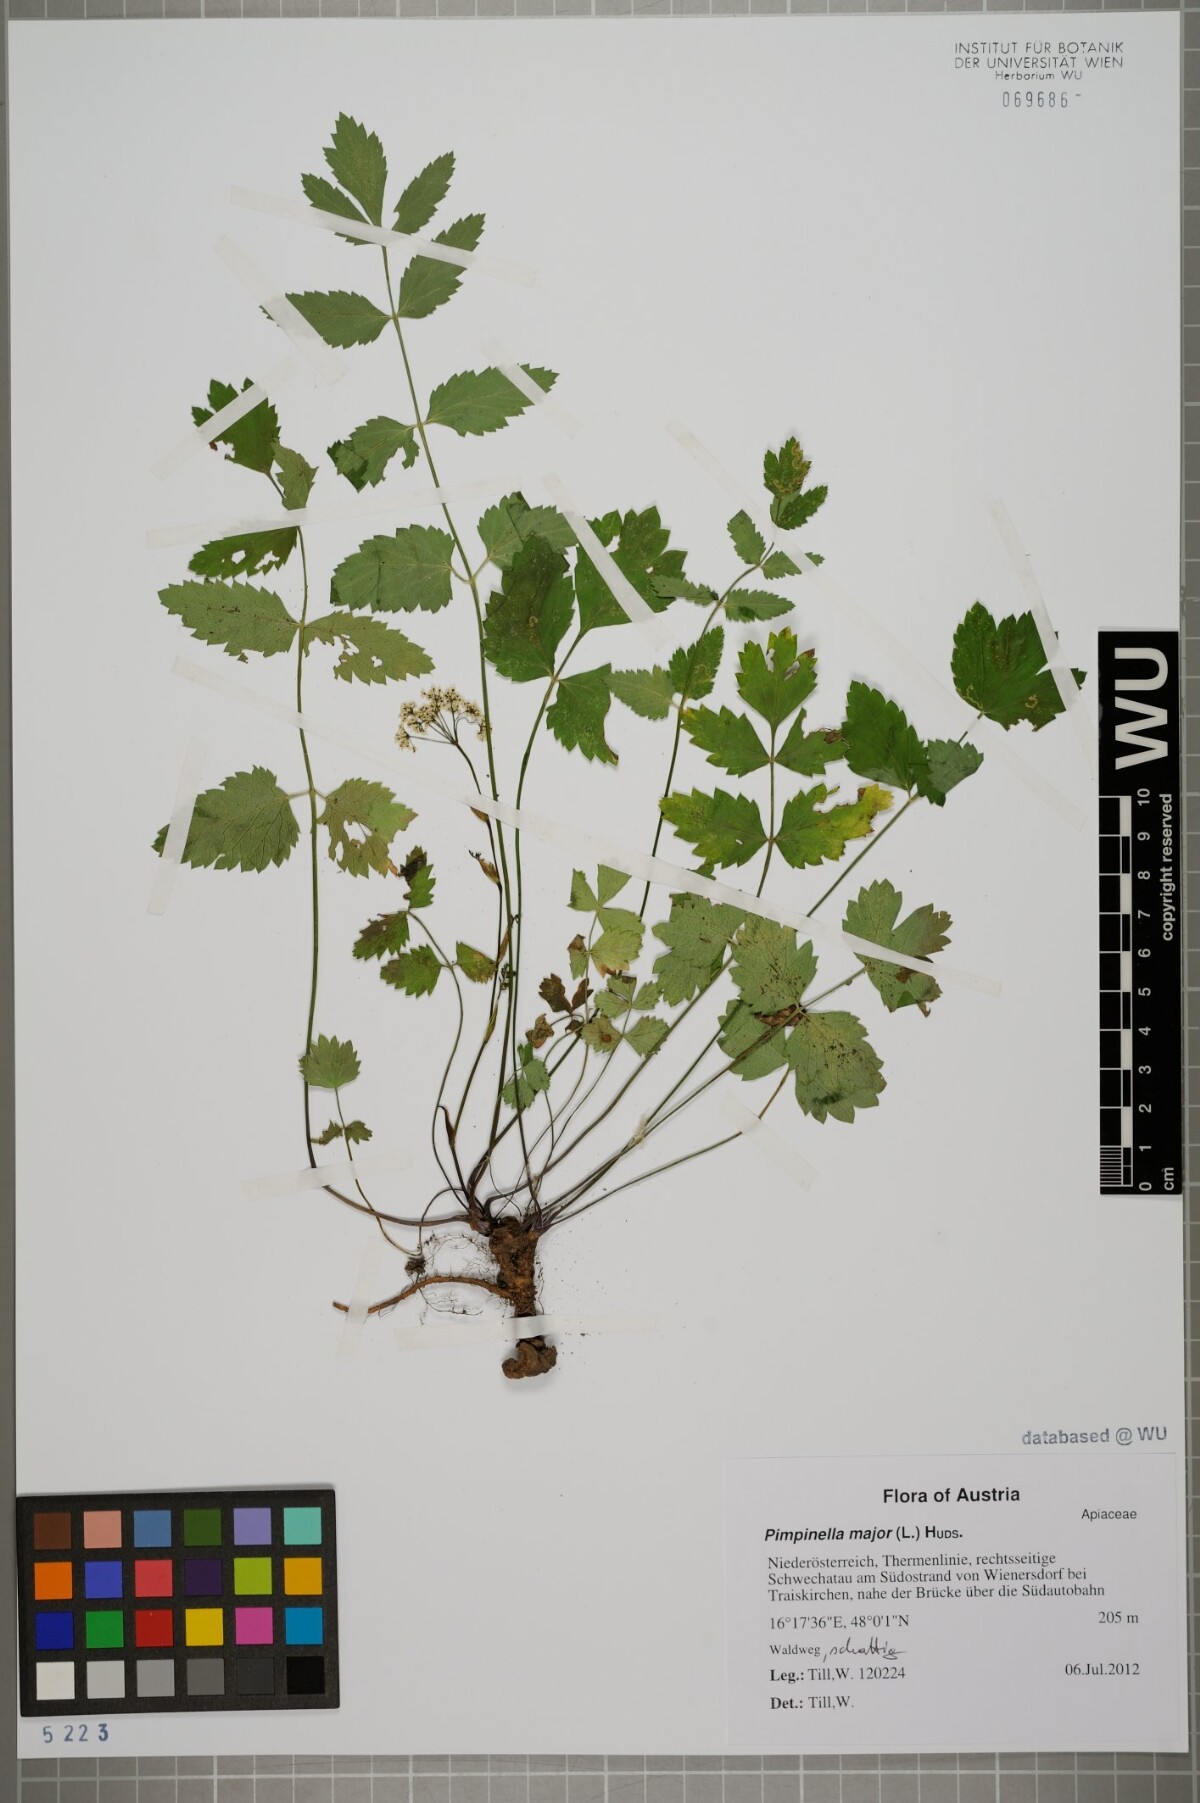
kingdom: Plantae
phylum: Tracheophyta
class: Magnoliopsida
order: Apiales
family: Apiaceae
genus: Pimpinella
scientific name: Pimpinella major
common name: Greater burnet-saxifrage
